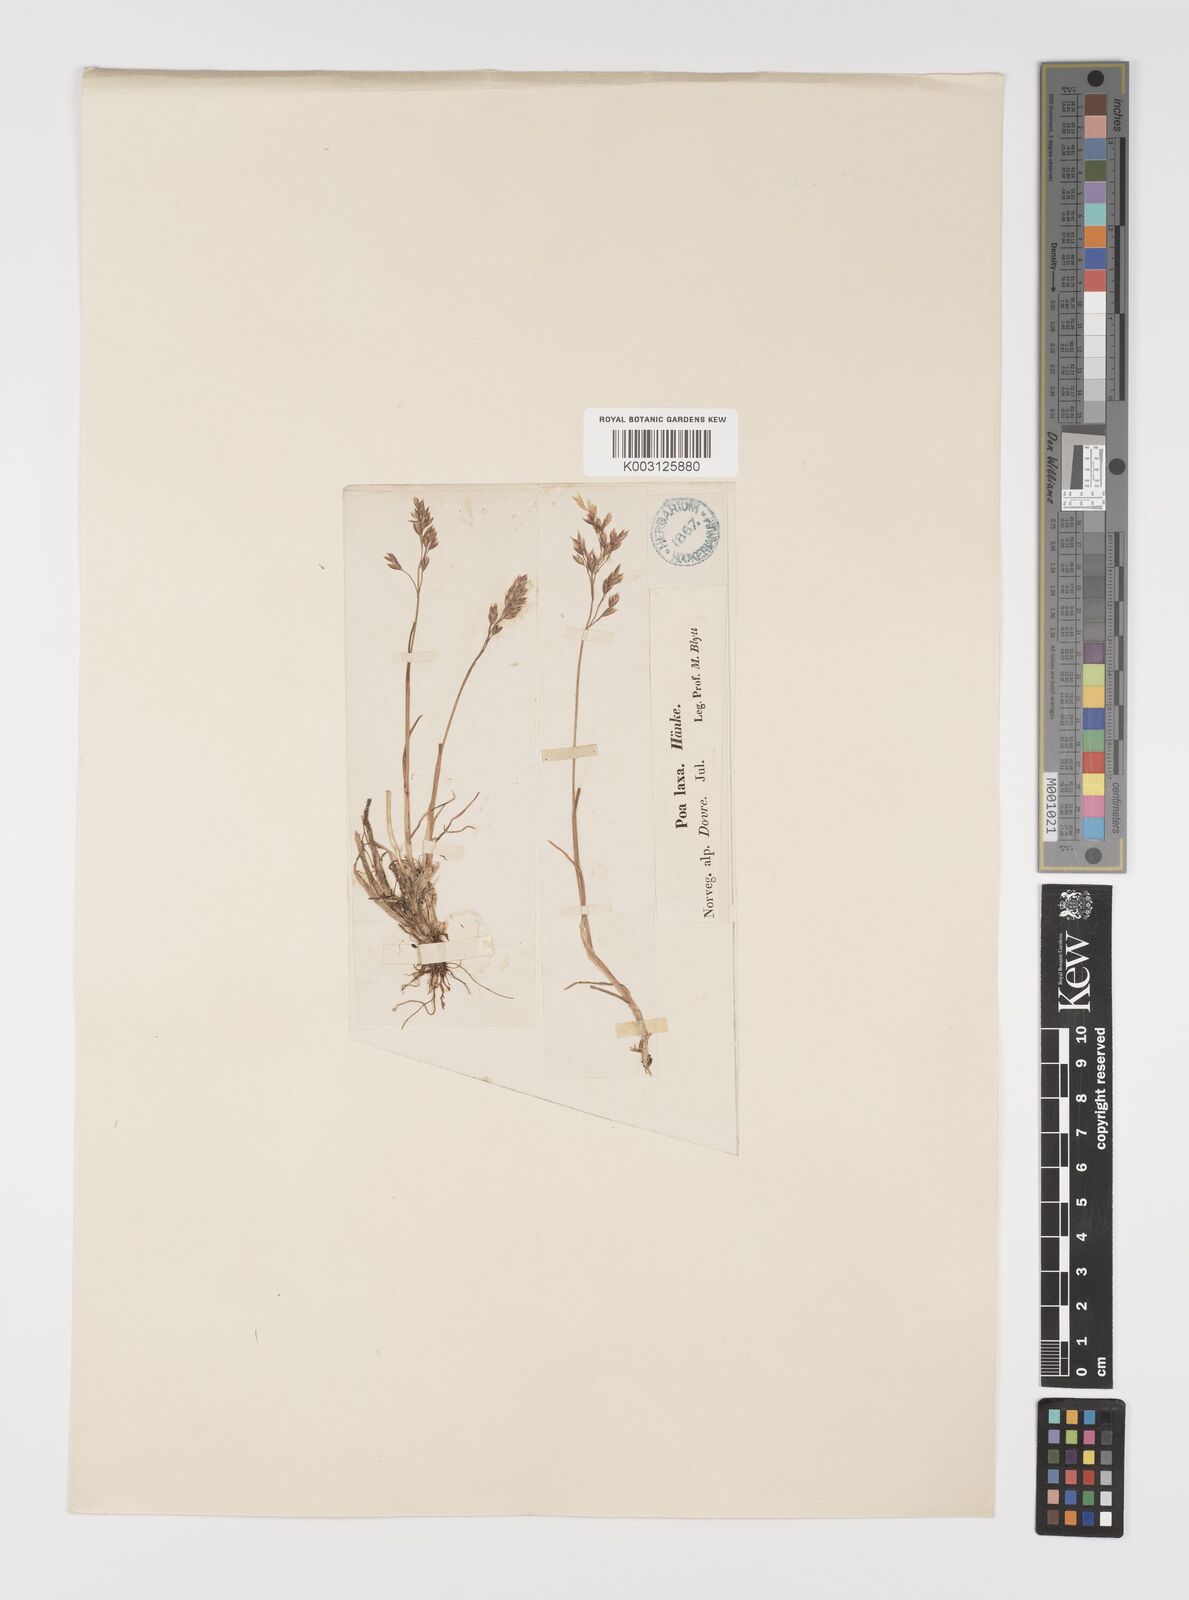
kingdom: Plantae
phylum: Tracheophyta
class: Liliopsida
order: Poales
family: Poaceae
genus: Eragrostis
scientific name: Eragrostis cilianensis
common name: Stinkgrass
